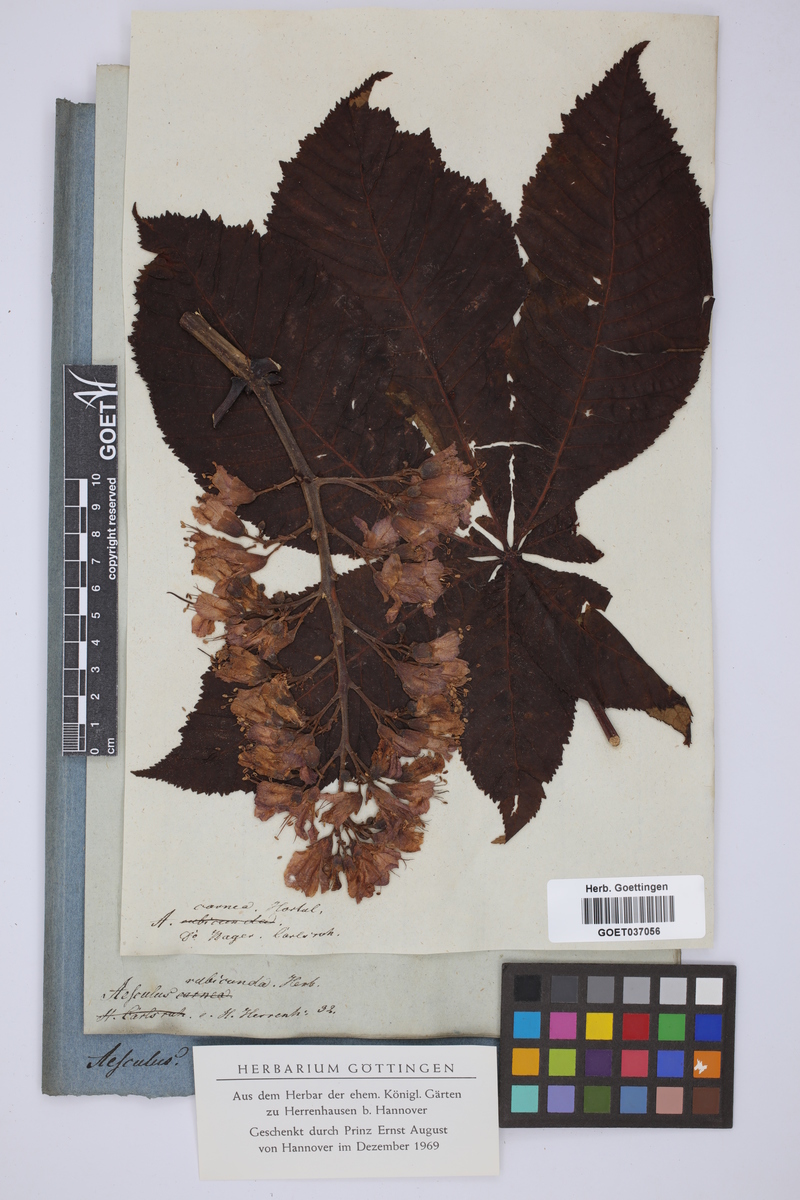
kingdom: Plantae
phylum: Tracheophyta
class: Magnoliopsida
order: Sapindales
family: Sapindaceae
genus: Aesculus
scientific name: Aesculus carnea
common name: Red horse-chestnut
